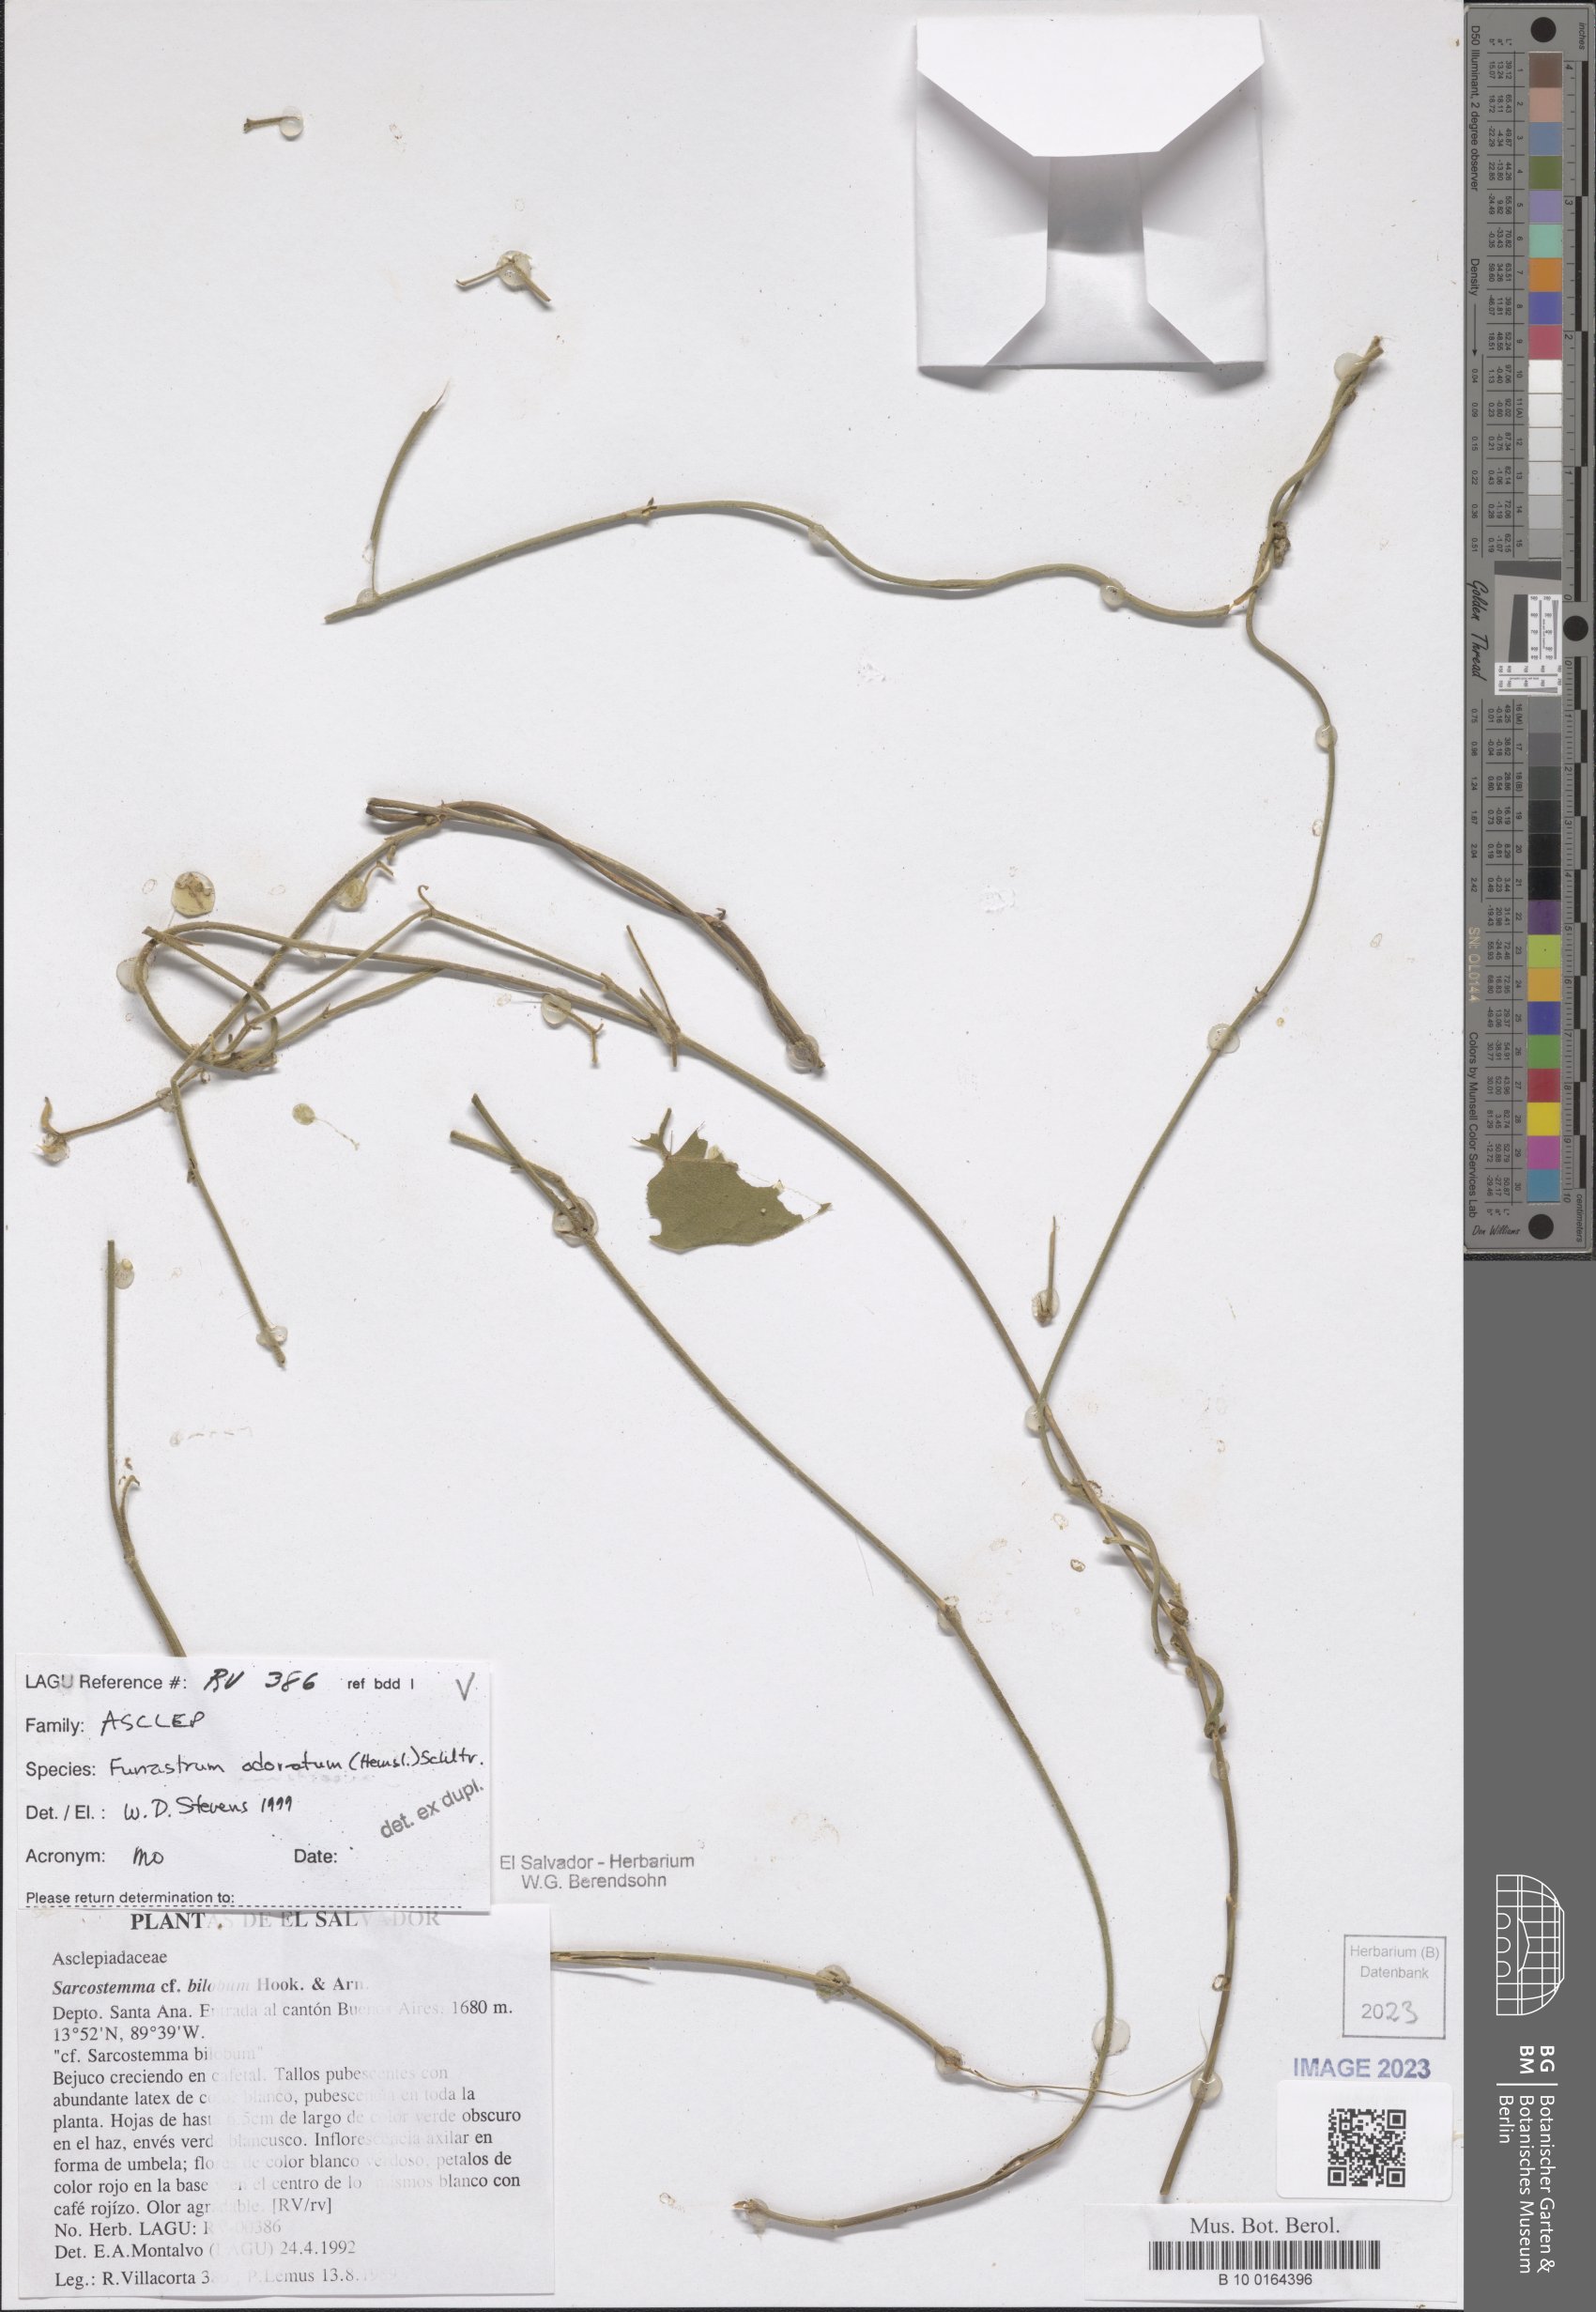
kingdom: Plantae
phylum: Tracheophyta
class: Magnoliopsida
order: Gentianales
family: Apocynaceae
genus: Funastrum
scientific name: Funastrum odoratum
